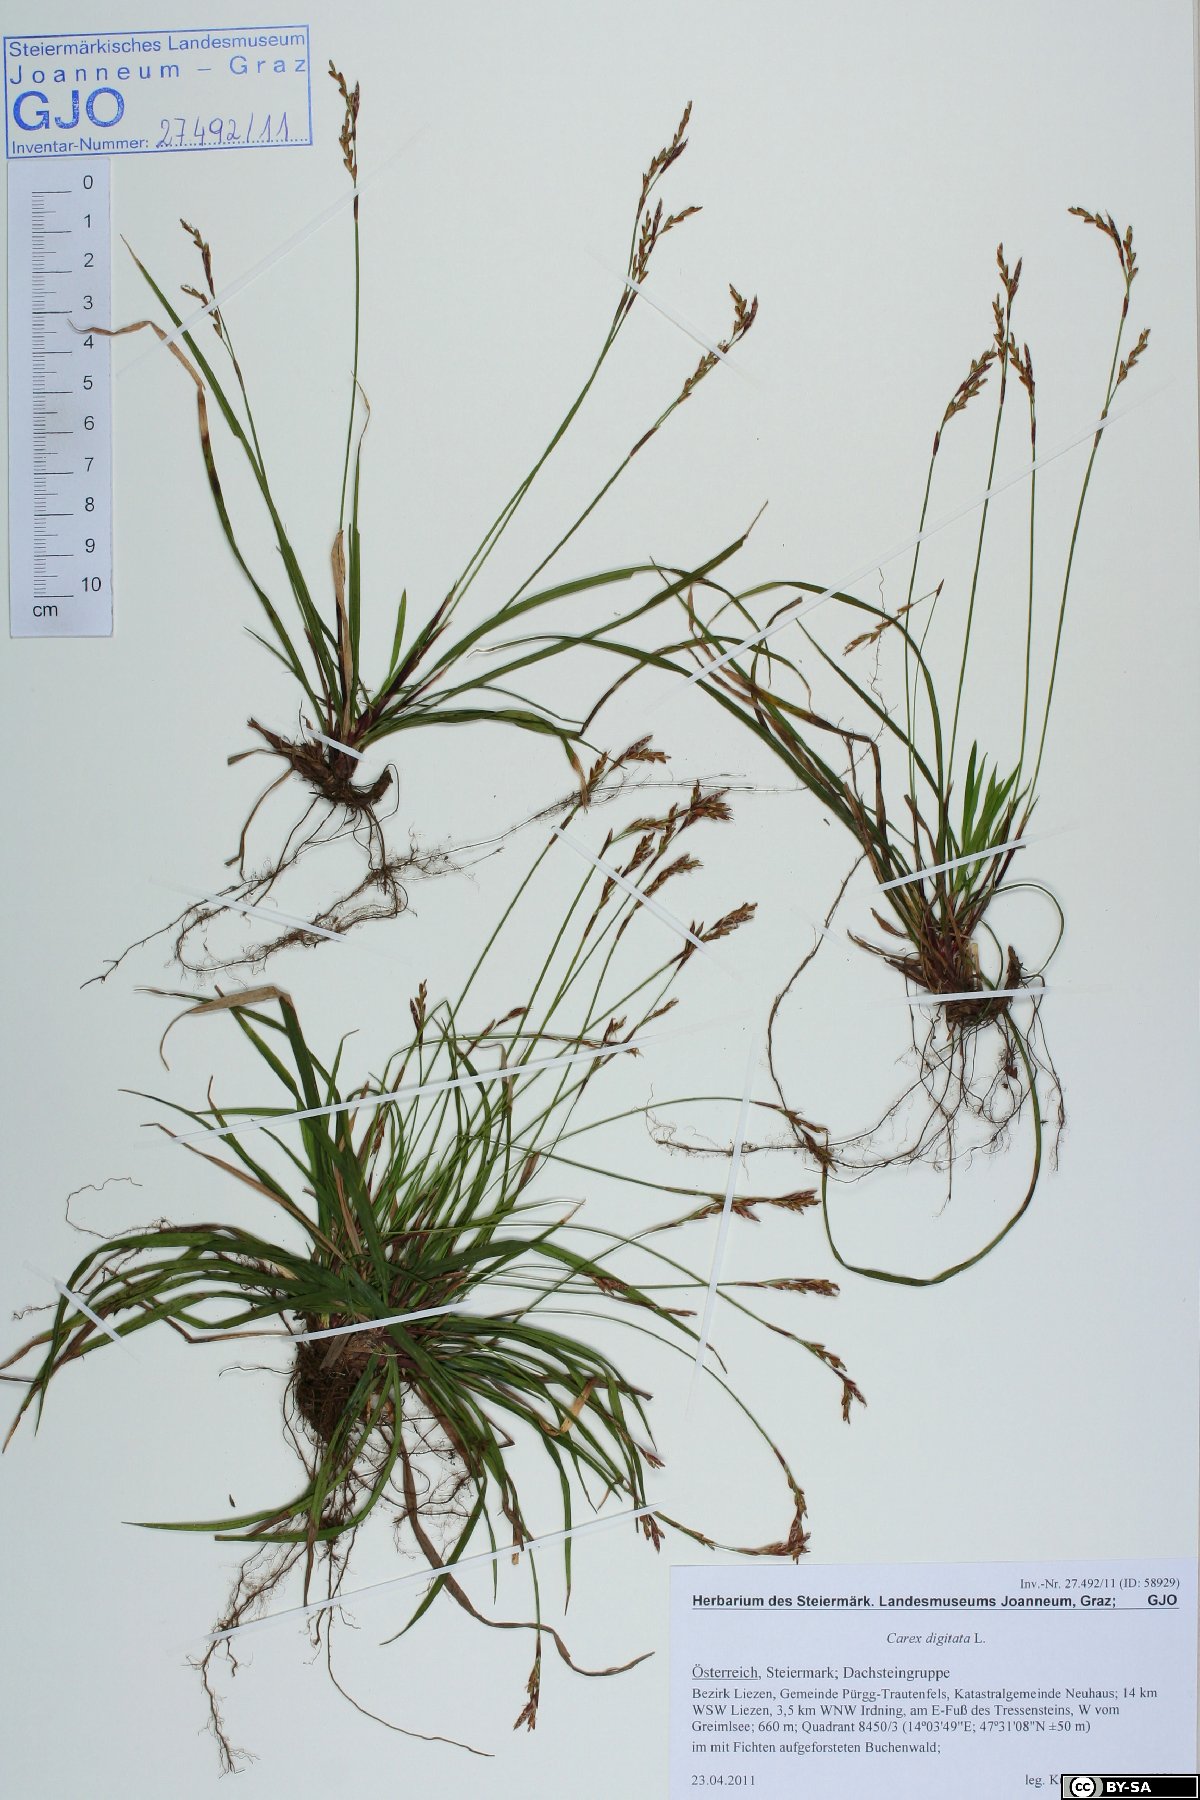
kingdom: Plantae
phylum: Tracheophyta
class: Liliopsida
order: Poales
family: Cyperaceae
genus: Carex
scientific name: Carex digitata
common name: Fingered sedge
